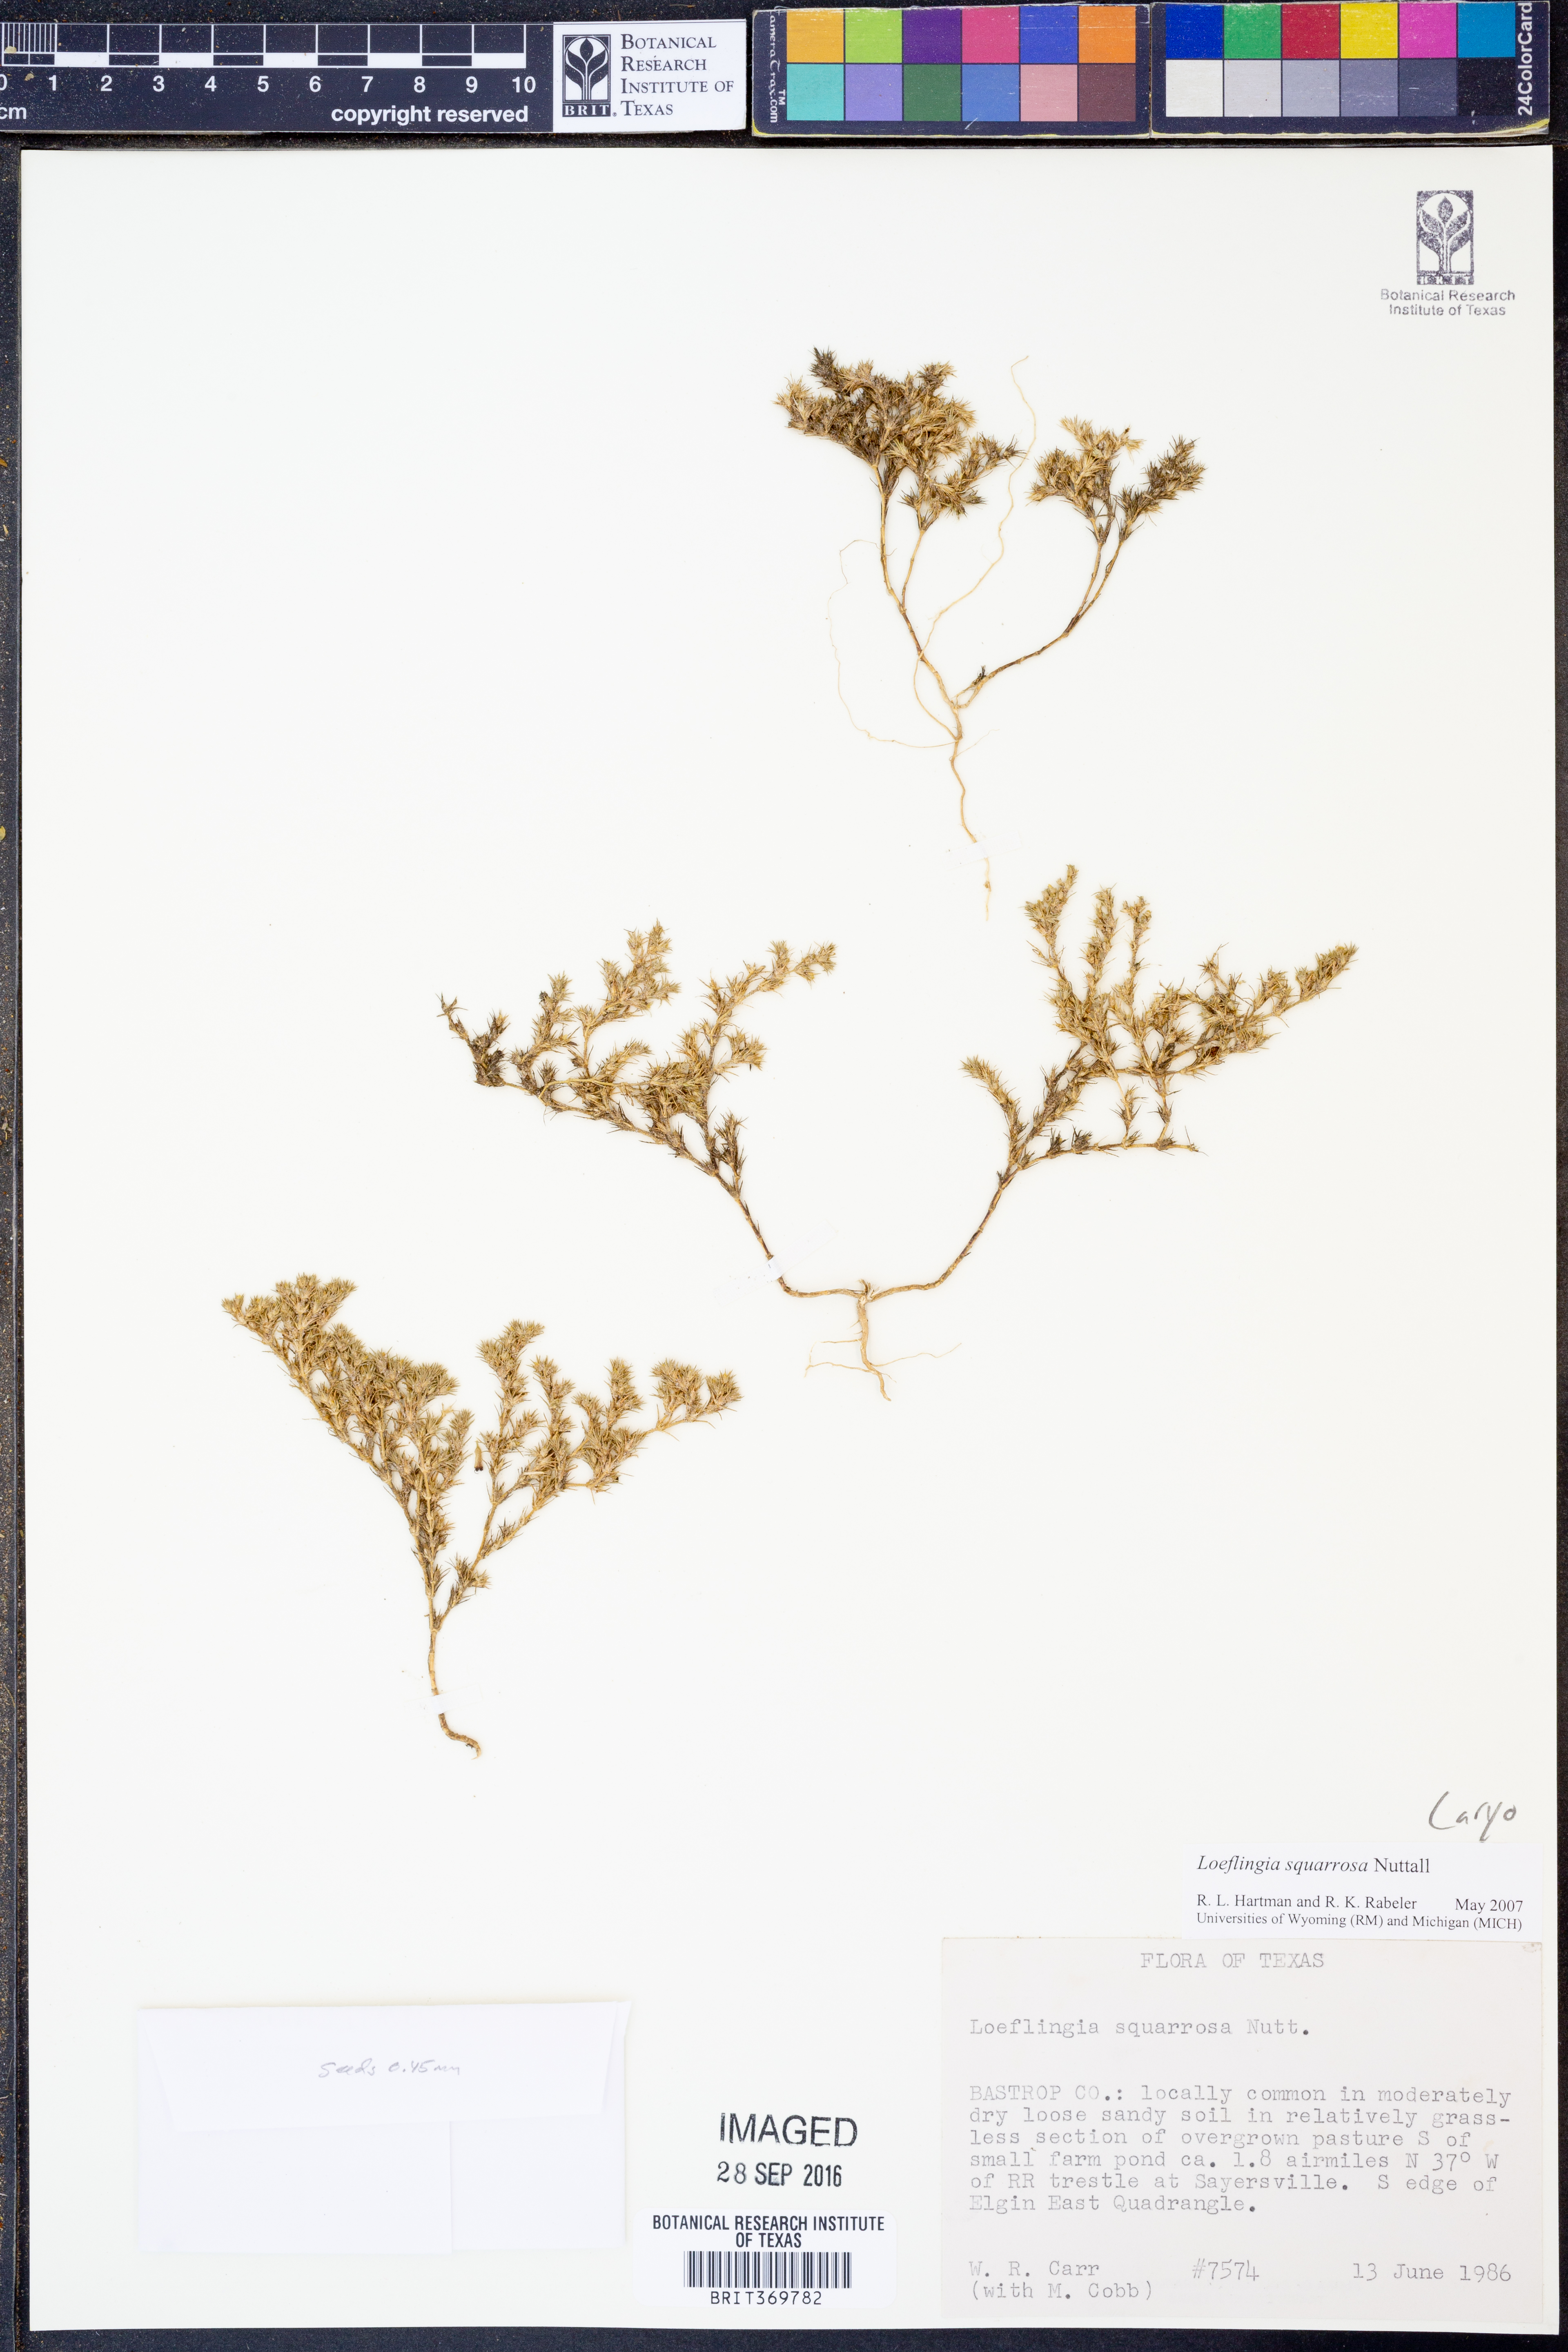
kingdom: Plantae
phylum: Tracheophyta
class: Magnoliopsida
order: Caryophyllales
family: Caryophyllaceae
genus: Loeflingia
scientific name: Loeflingia squarrosa
